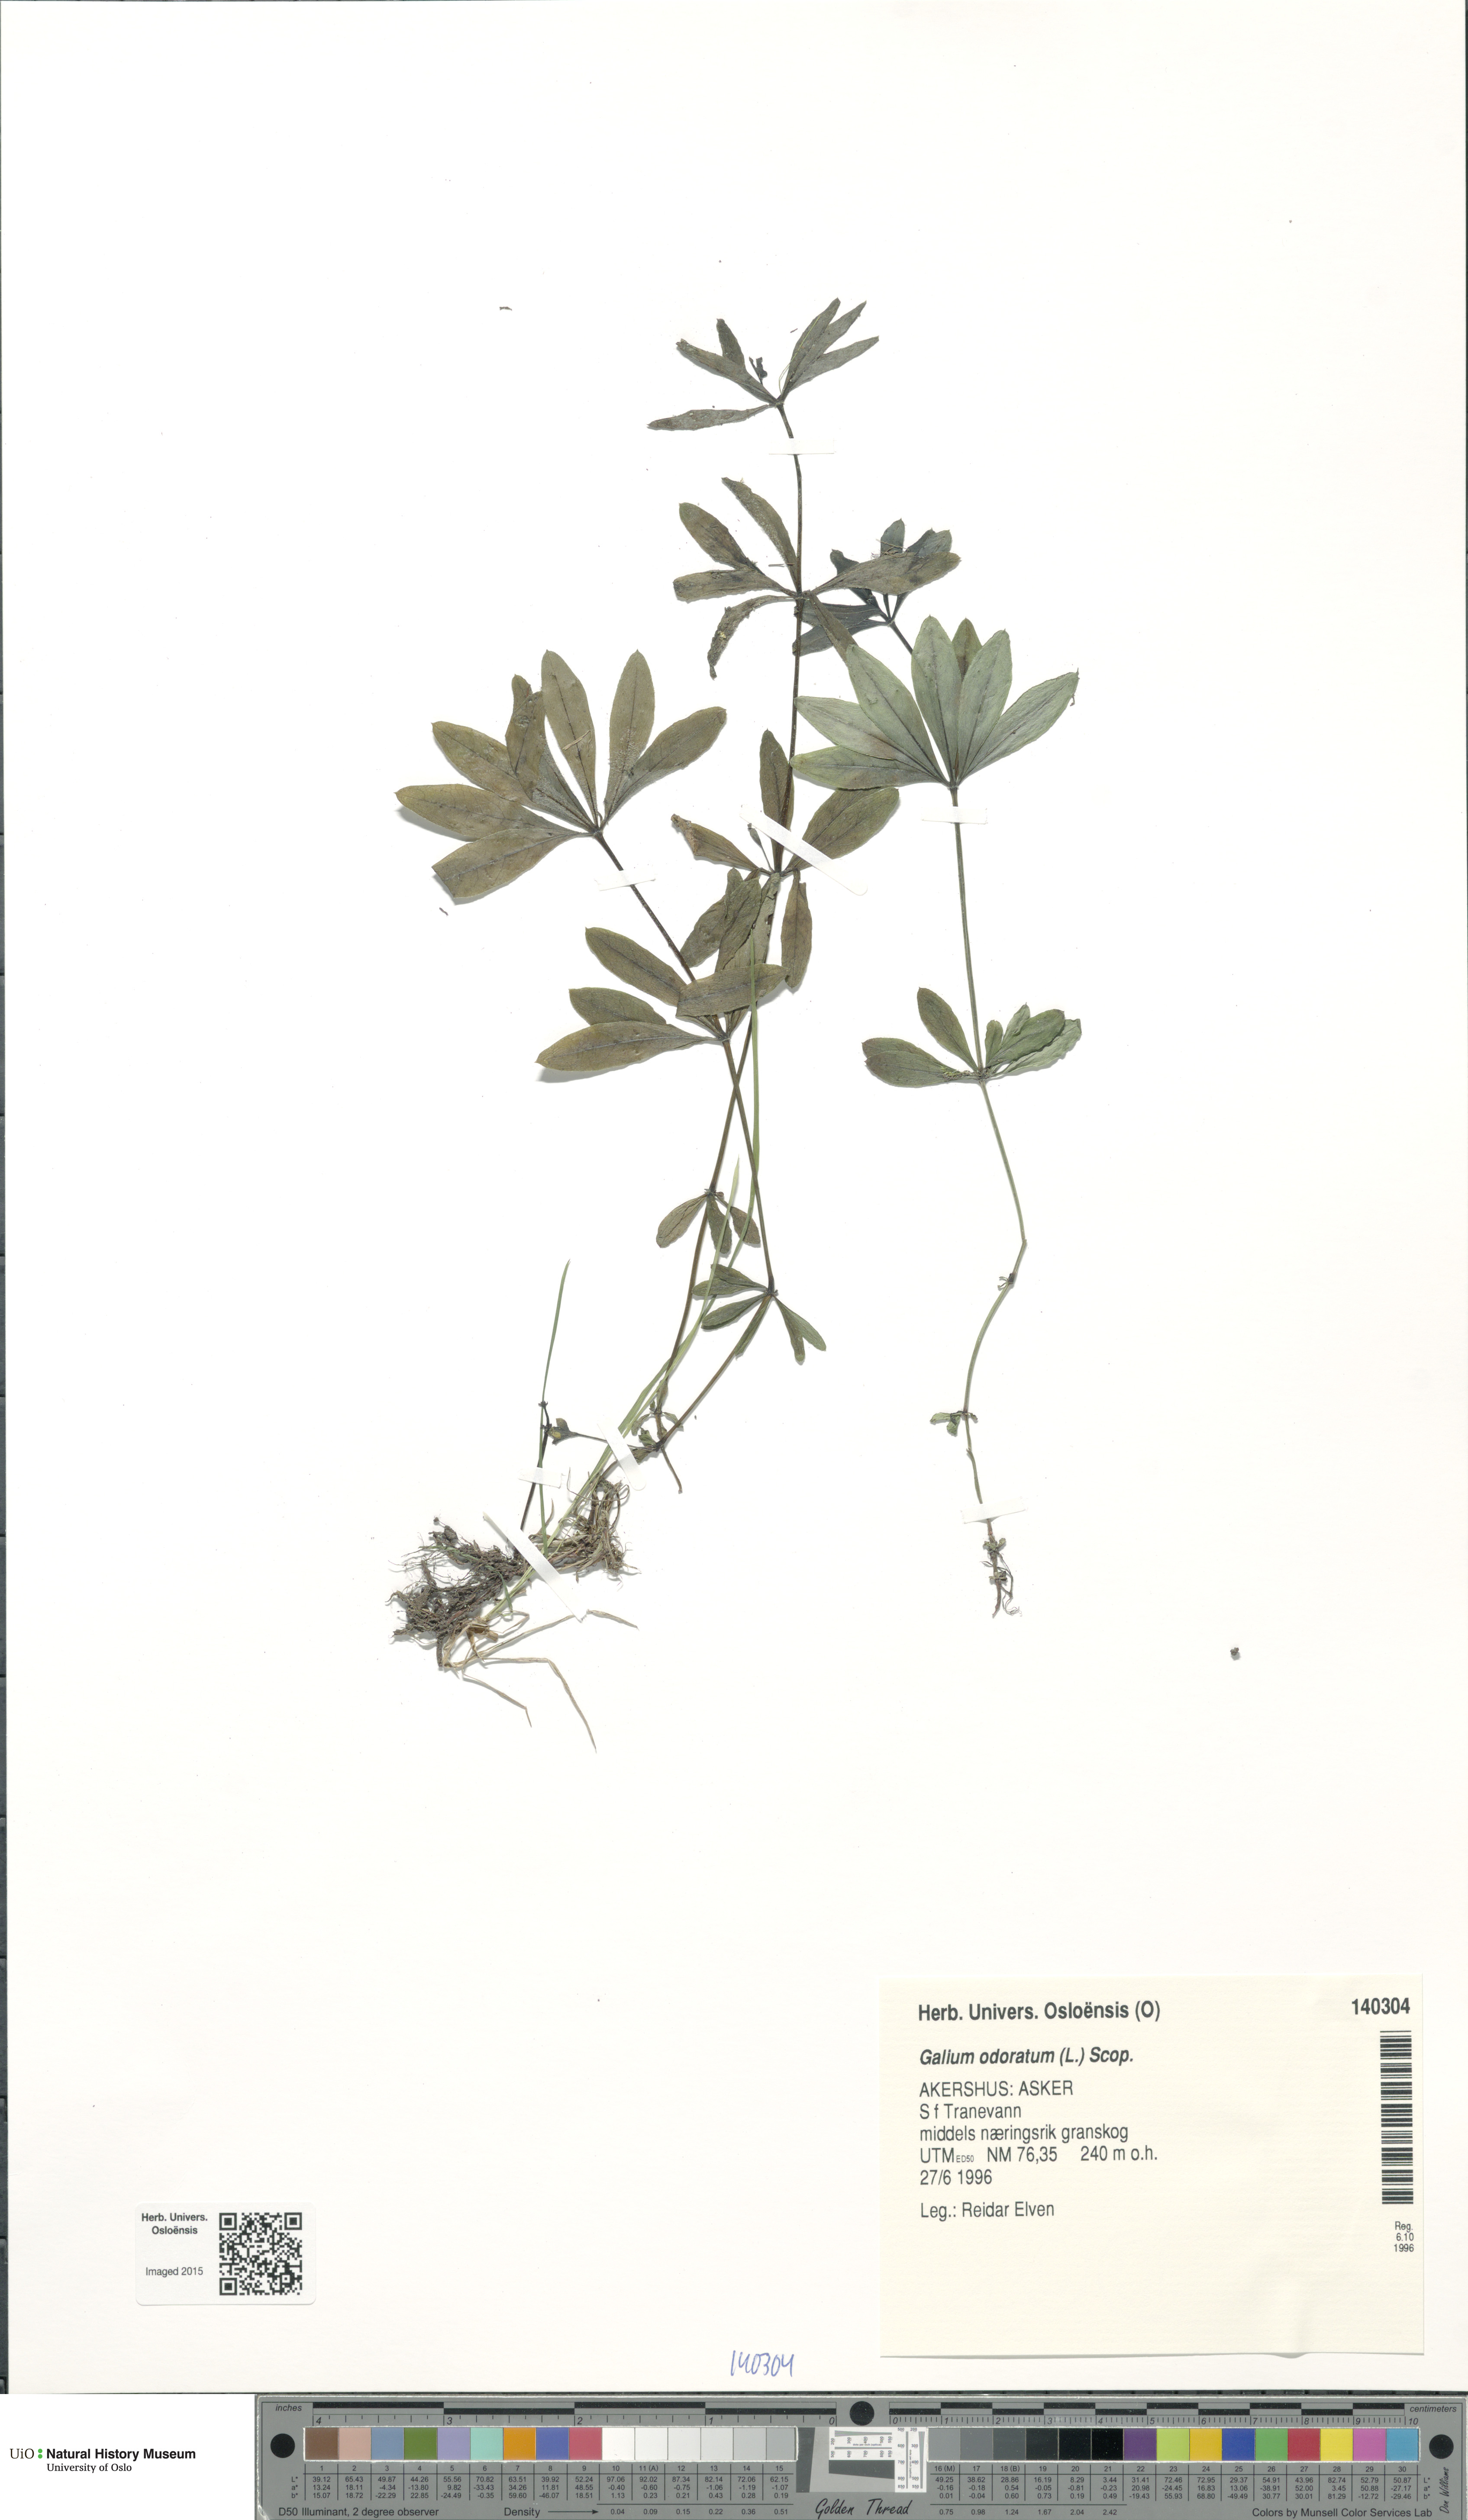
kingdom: Plantae
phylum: Tracheophyta
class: Magnoliopsida
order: Gentianales
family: Rubiaceae
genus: Galium
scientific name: Galium odoratum
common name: Sweet woodruff
